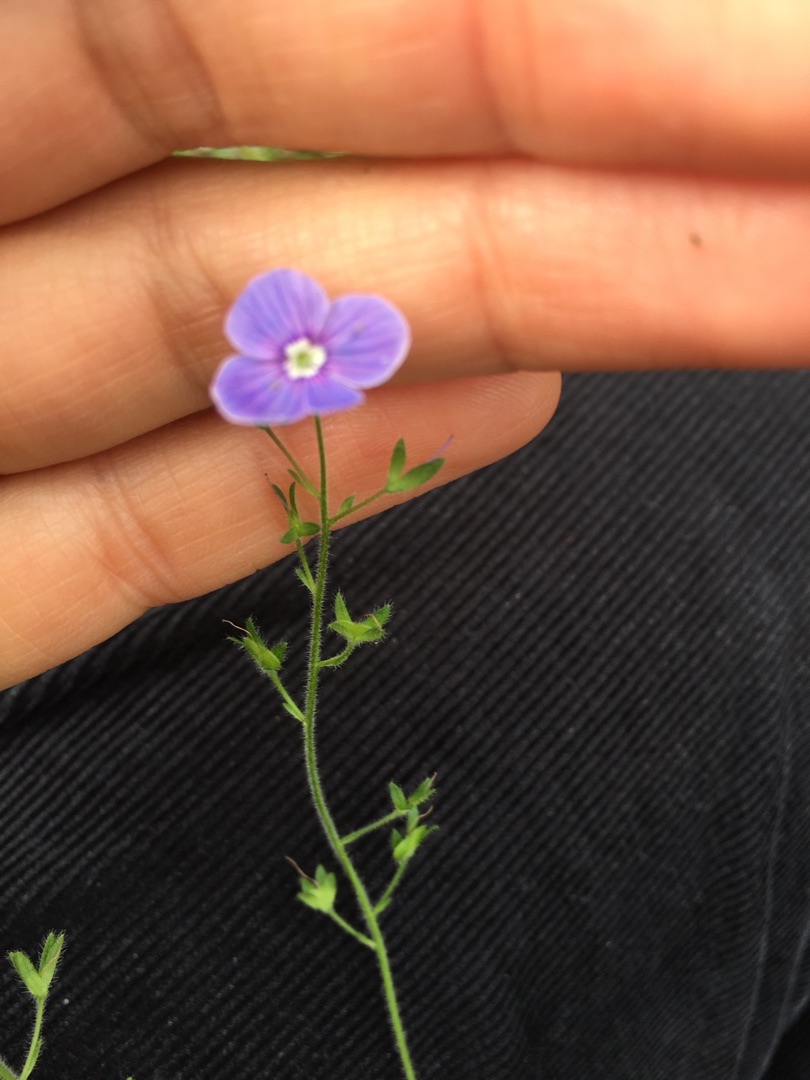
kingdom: Plantae
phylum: Tracheophyta
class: Magnoliopsida
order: Lamiales
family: Plantaginaceae
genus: Veronica
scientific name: Veronica chamaedrys
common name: Tveskægget ærenpris
